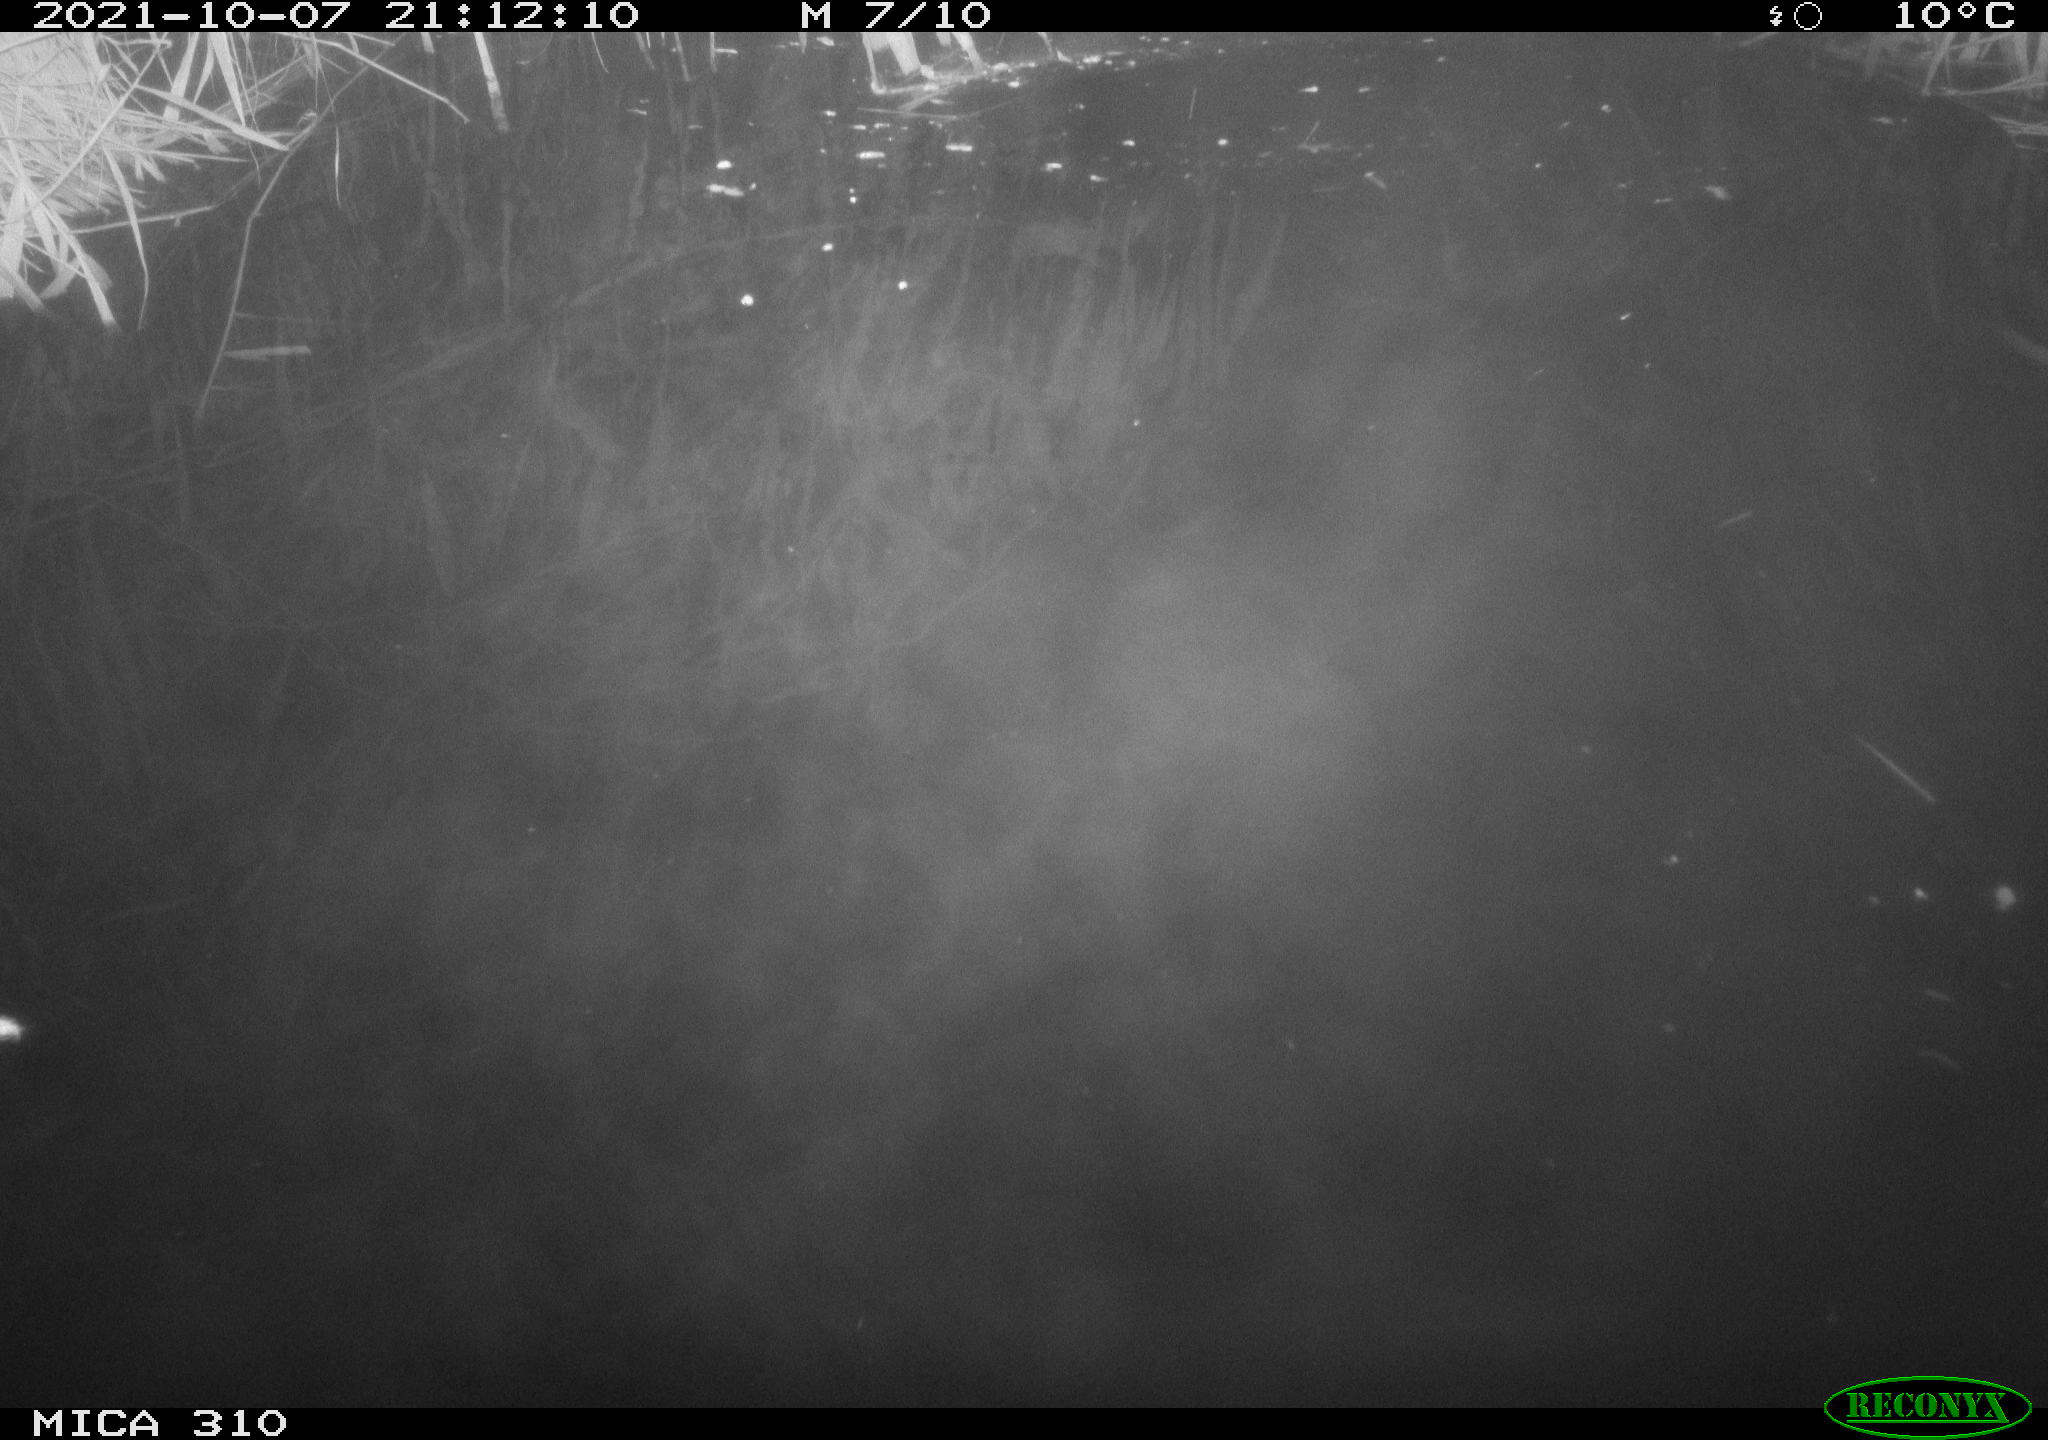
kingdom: Animalia
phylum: Chordata
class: Mammalia
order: Rodentia
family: Muridae
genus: Rattus
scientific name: Rattus norvegicus
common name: Brown rat
